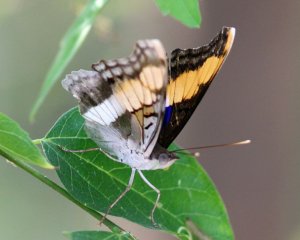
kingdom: Animalia
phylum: Arthropoda
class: Insecta
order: Lepidoptera
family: Nymphalidae
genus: Doxocopa
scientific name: Doxocopa laure
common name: Silver Emperor
